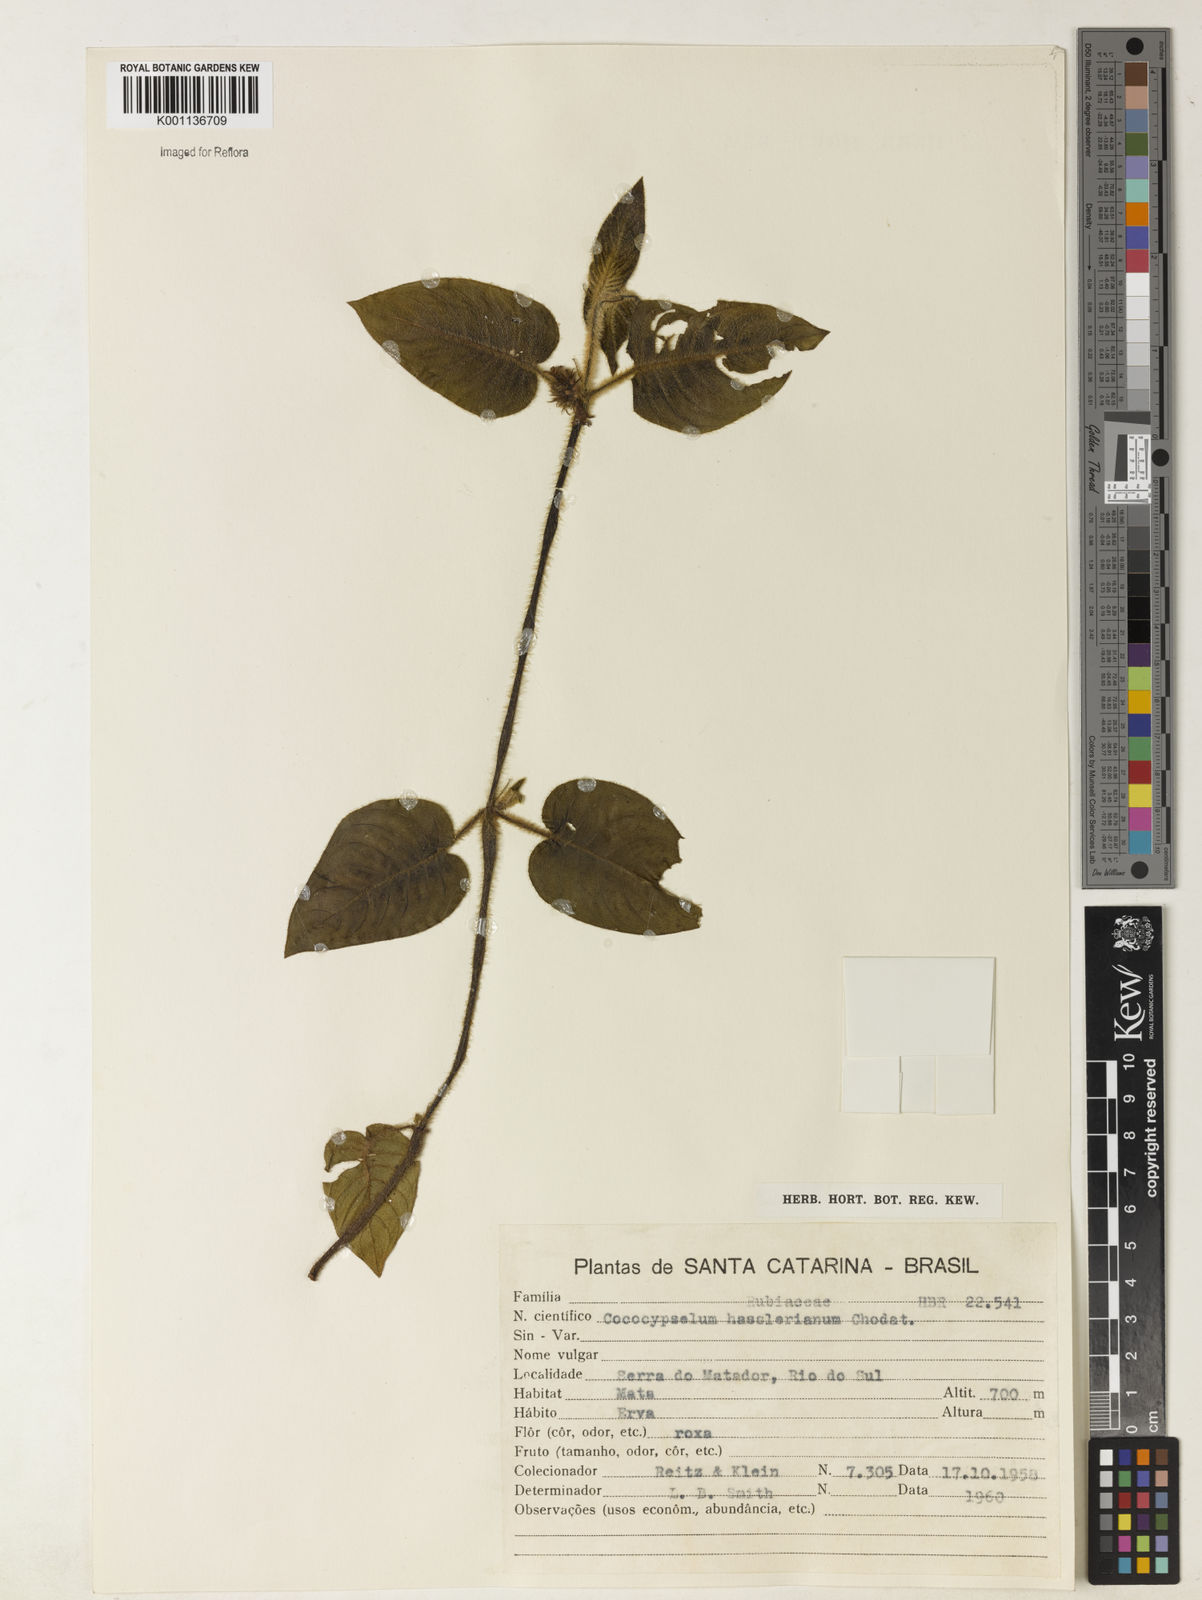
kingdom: Plantae
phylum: Tracheophyta
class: Magnoliopsida
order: Gentianales
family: Rubiaceae
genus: Coccocypselum
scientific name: Coccocypselum hasslerianum
